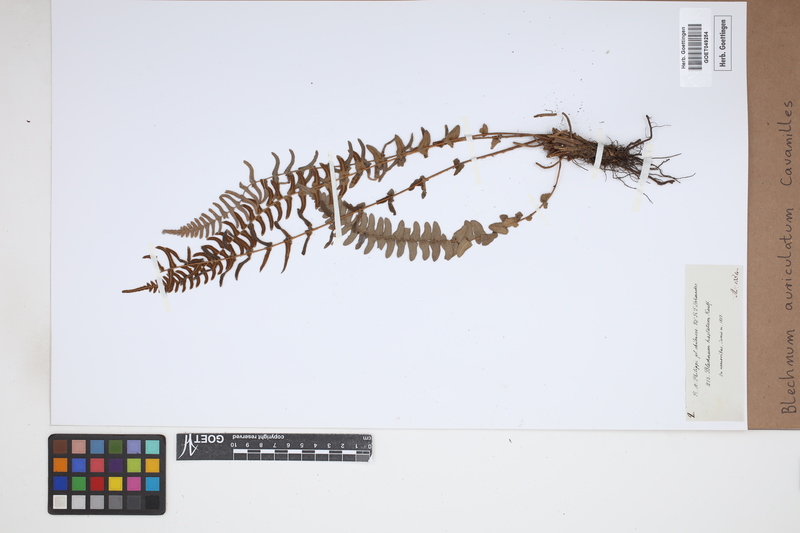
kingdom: Plantae
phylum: Tracheophyta
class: Polypodiopsida
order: Polypodiales
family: Blechnaceae
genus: Blechnum
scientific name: Blechnum auriculatum
